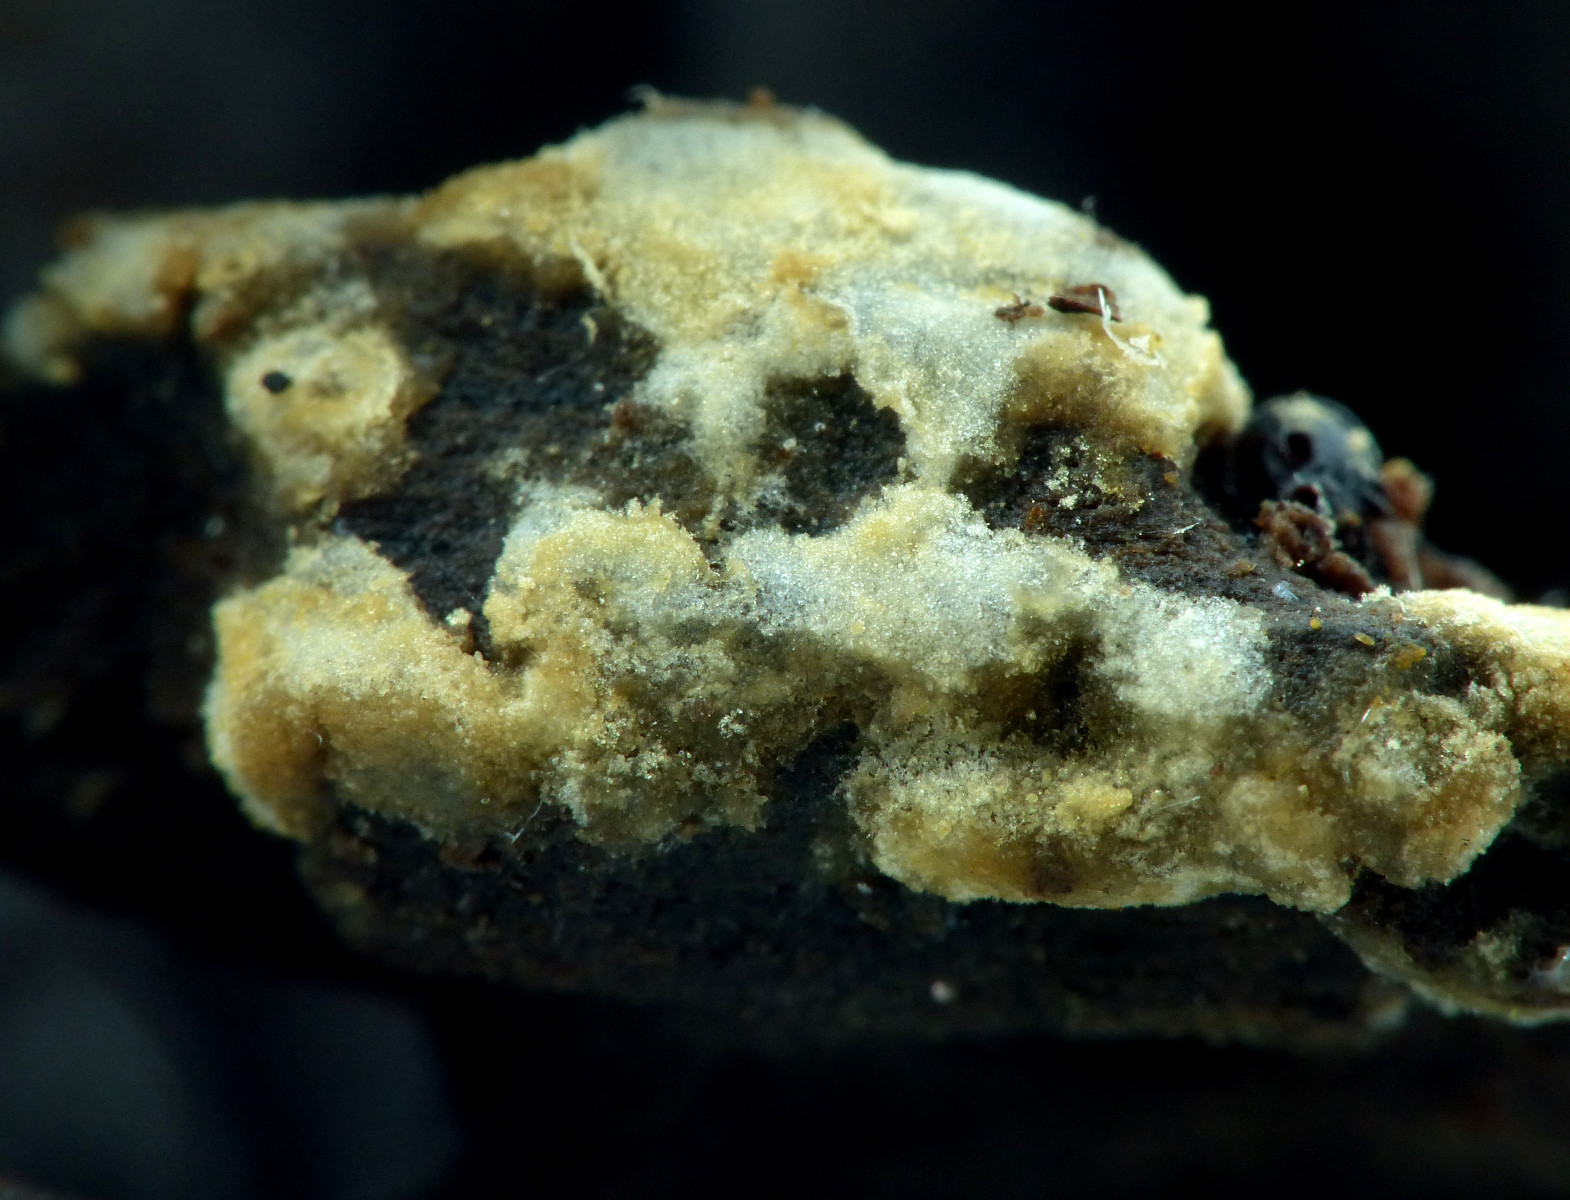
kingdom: Fungi
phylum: Basidiomycota
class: Agaricomycetes
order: Cantharellales
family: Botryobasidiaceae
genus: Botryobasidium
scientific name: Botryobasidium aureum
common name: gylden spindhinde
